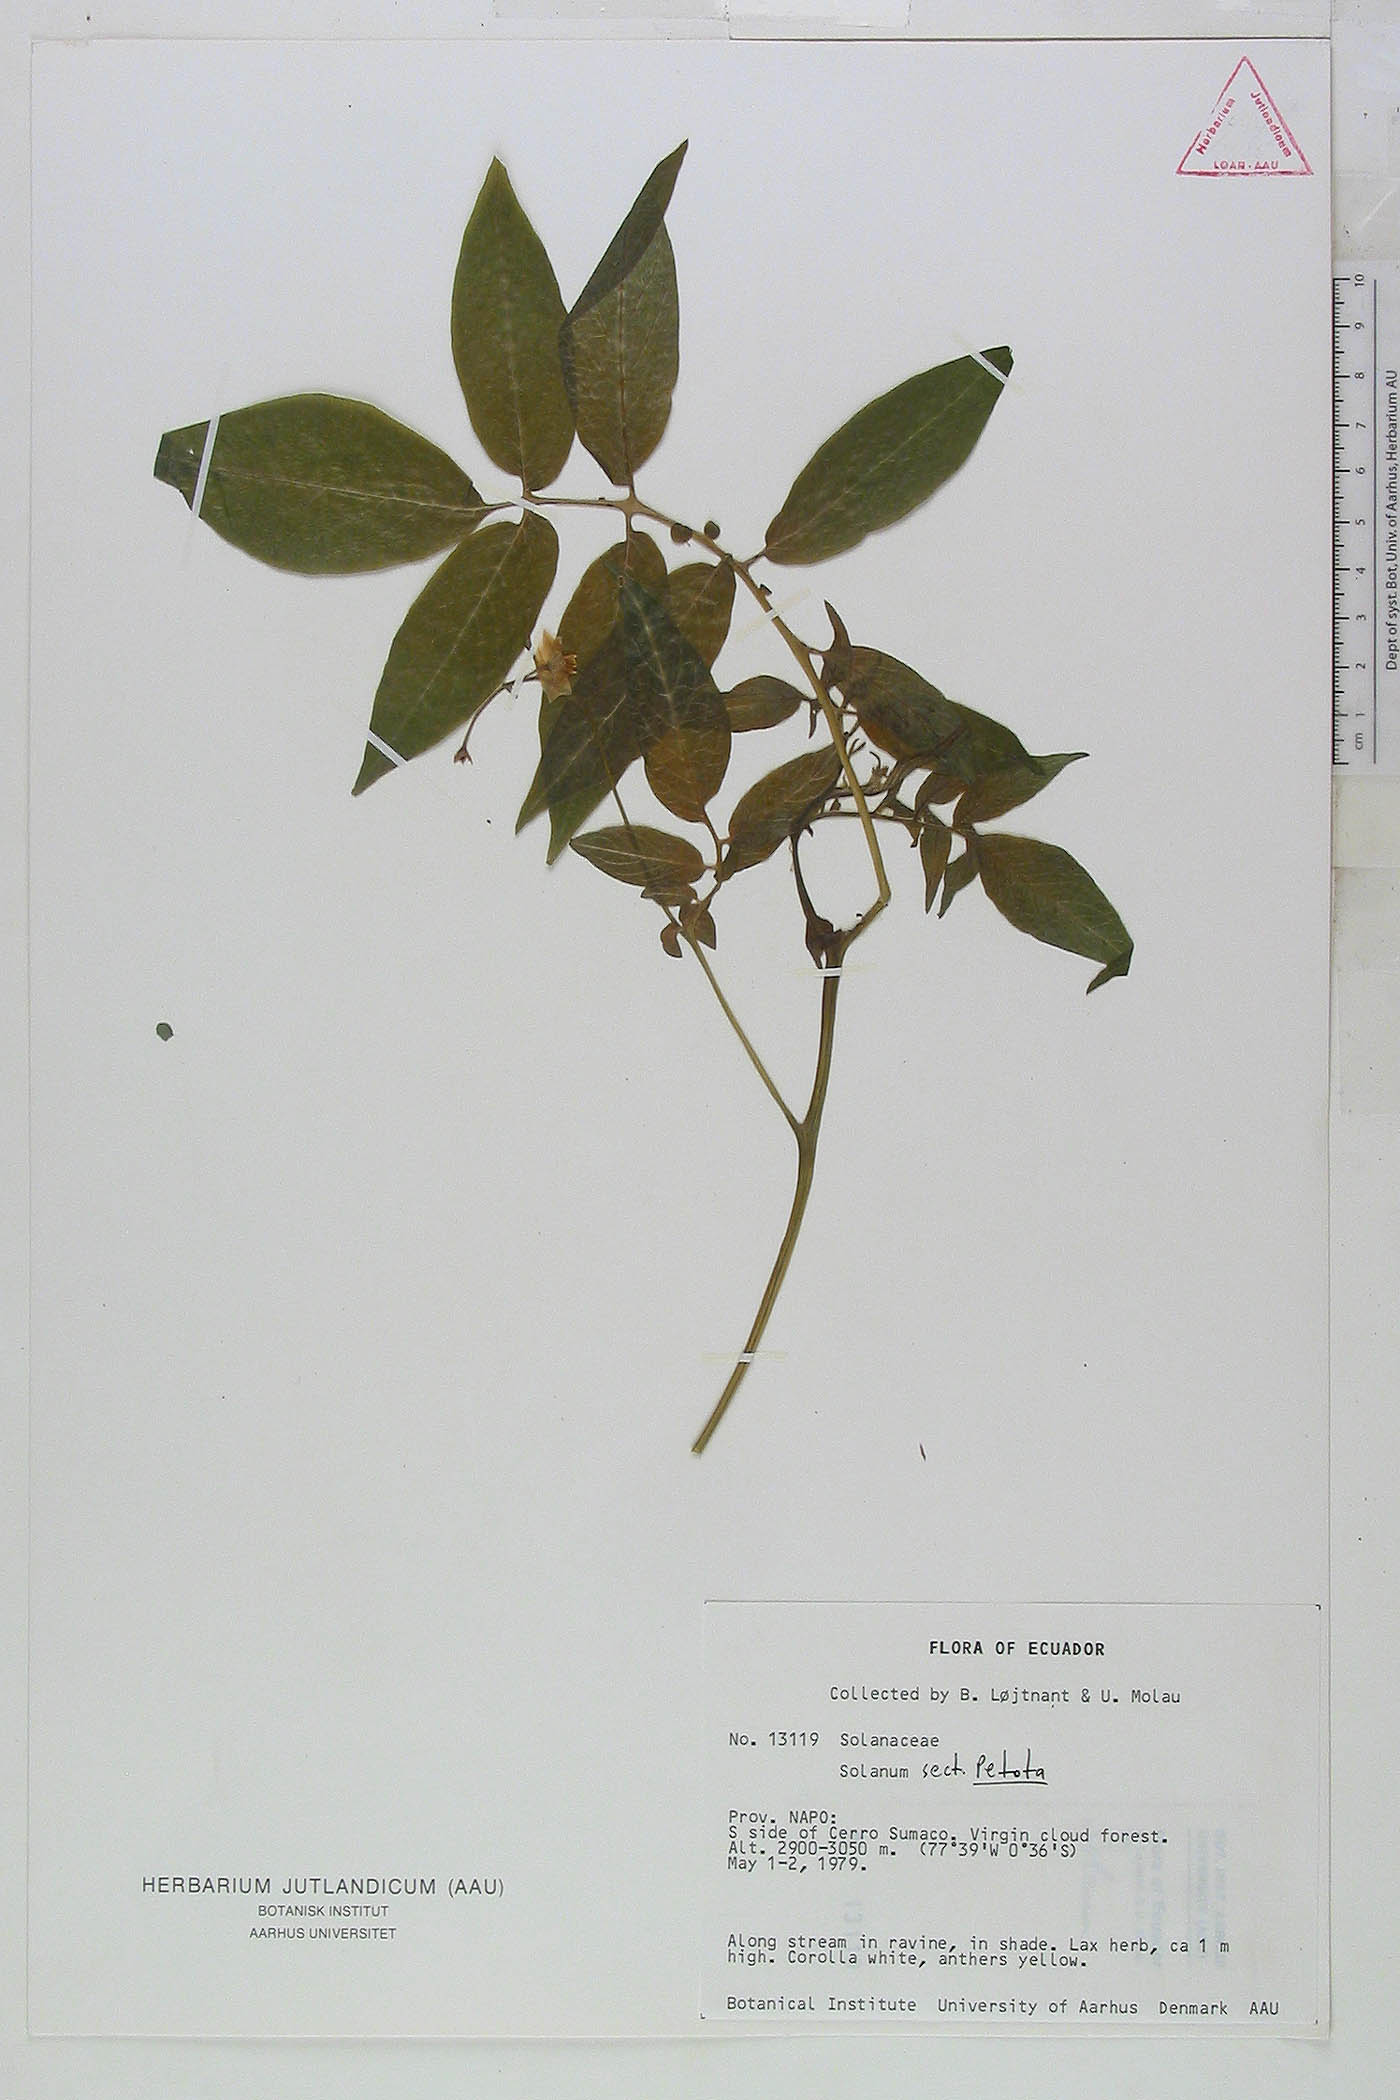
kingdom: Plantae
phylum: Tracheophyta
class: Magnoliopsida
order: Solanales
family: Solanaceae
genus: Solanum
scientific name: Solanum colombianum
